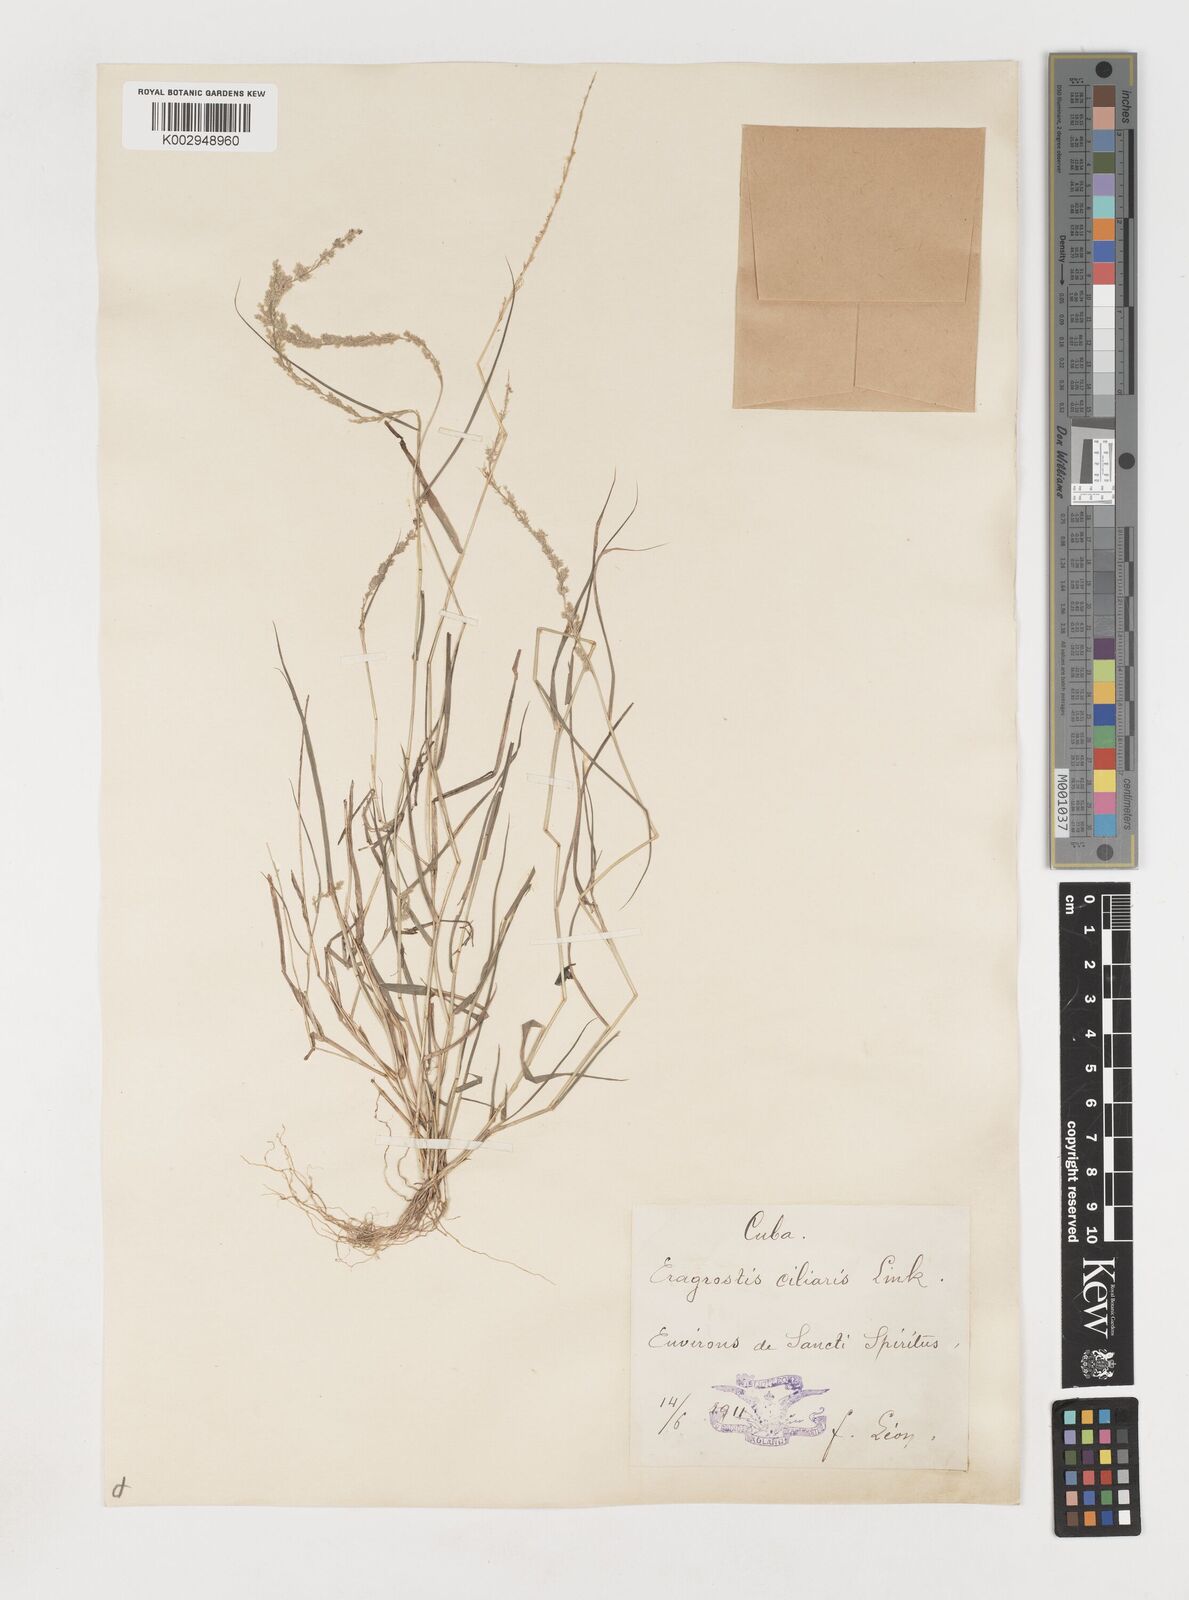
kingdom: Plantae
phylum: Tracheophyta
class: Liliopsida
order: Poales
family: Poaceae
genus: Eragrostis
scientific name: Eragrostis ciliaris
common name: Gophertail lovegrass
